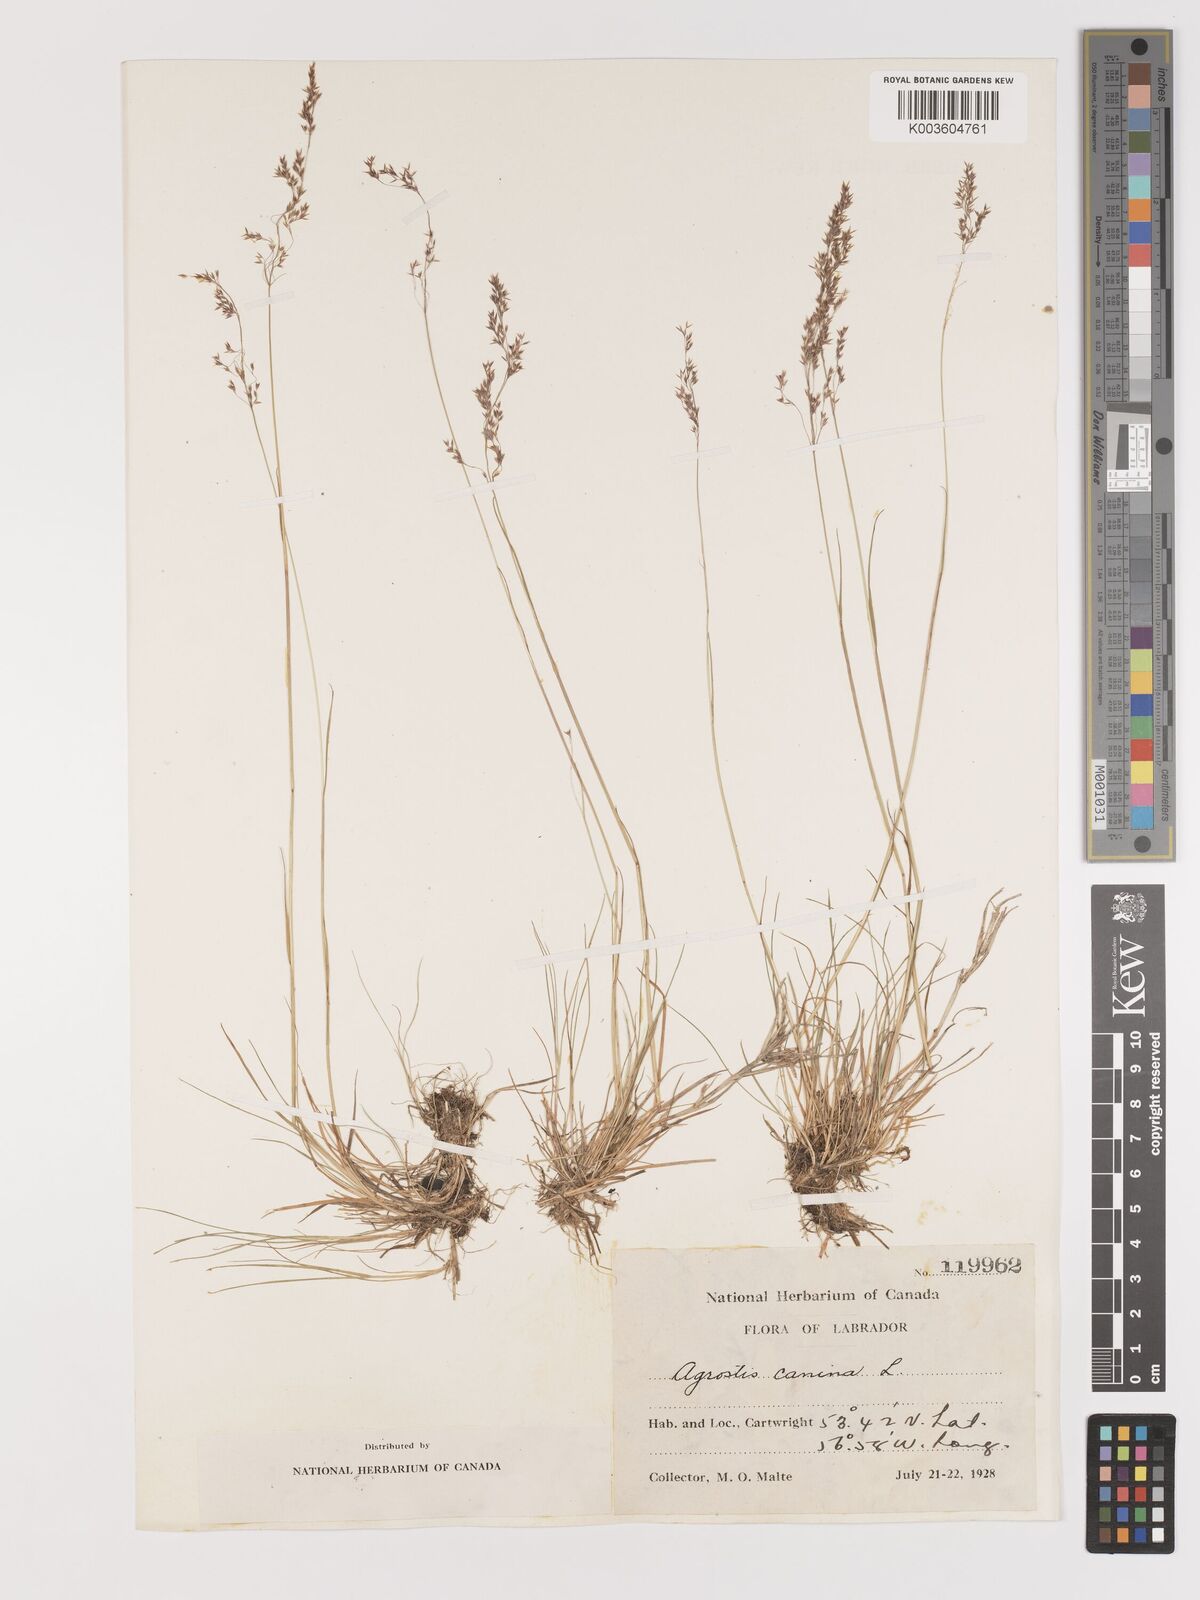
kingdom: Plantae
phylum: Tracheophyta
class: Liliopsida
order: Poales
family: Poaceae
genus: Agrostis
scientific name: Agrostis canina
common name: Velvet bent
